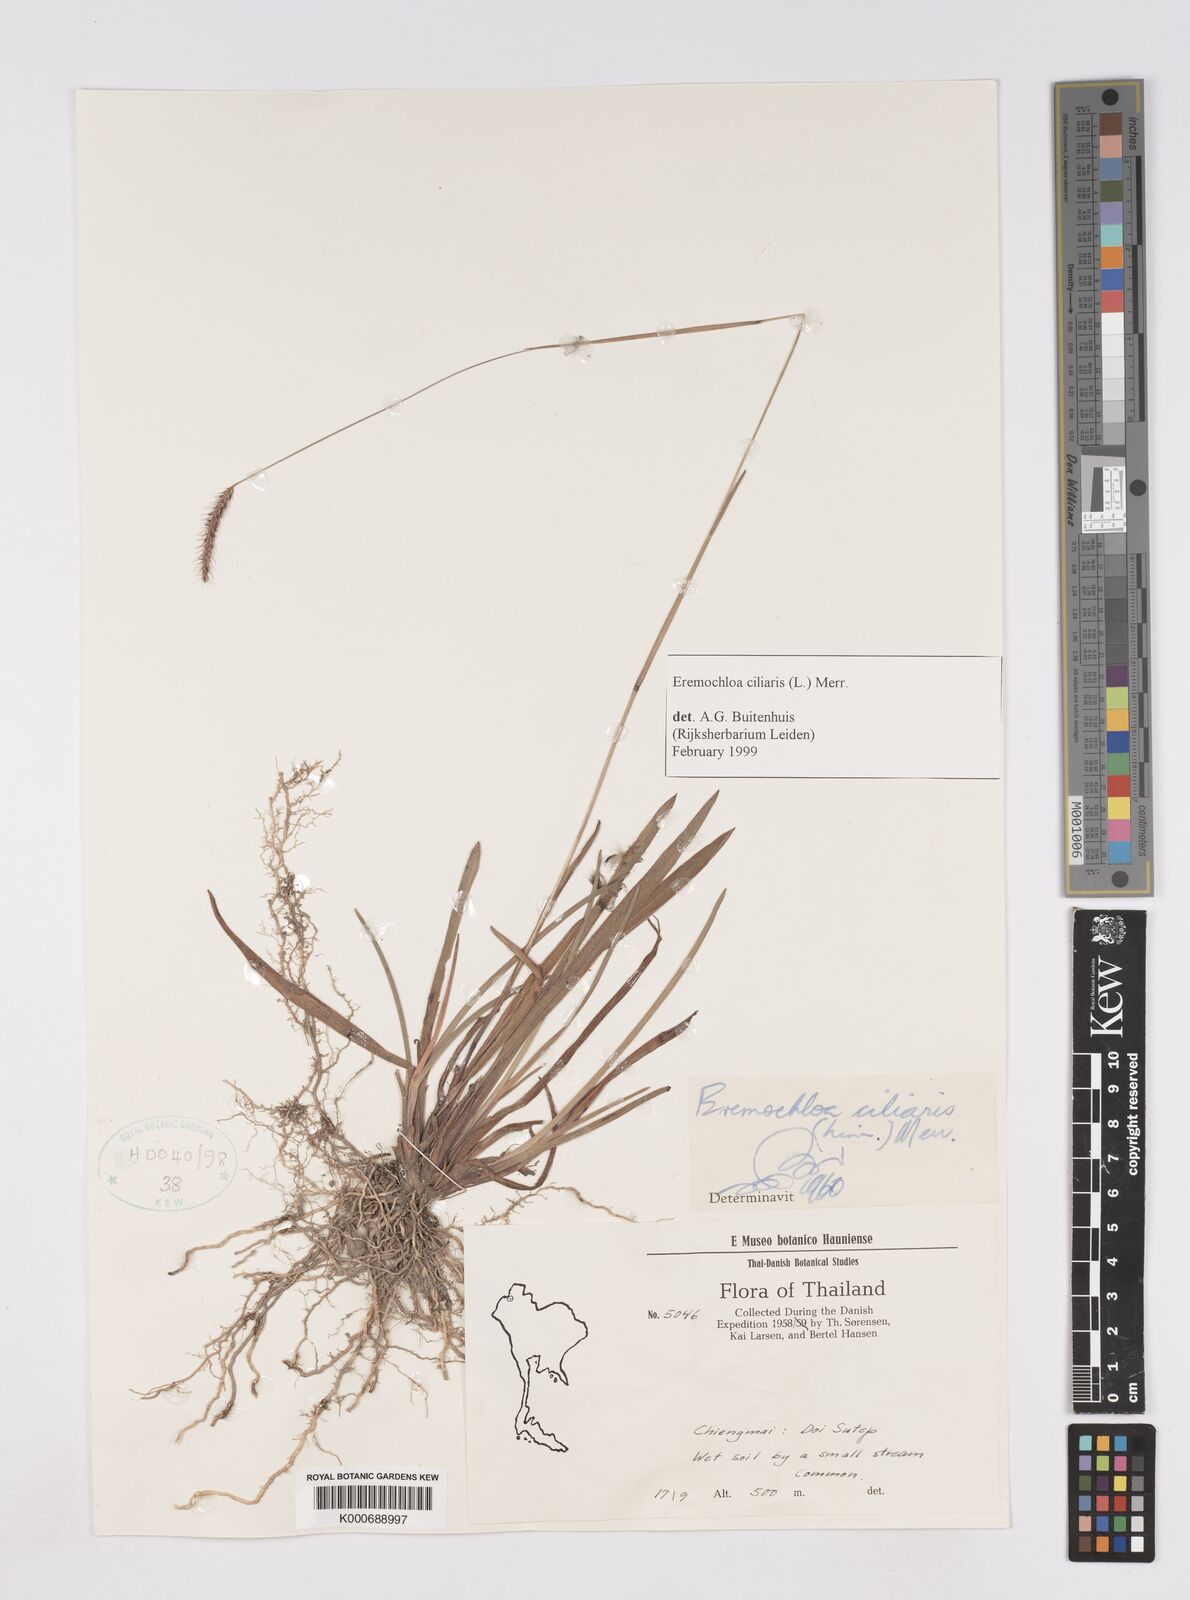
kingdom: Plantae
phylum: Tracheophyta
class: Liliopsida
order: Poales
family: Poaceae
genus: Eremochloa
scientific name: Eremochloa ciliaris
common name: Fringed centipede grass
